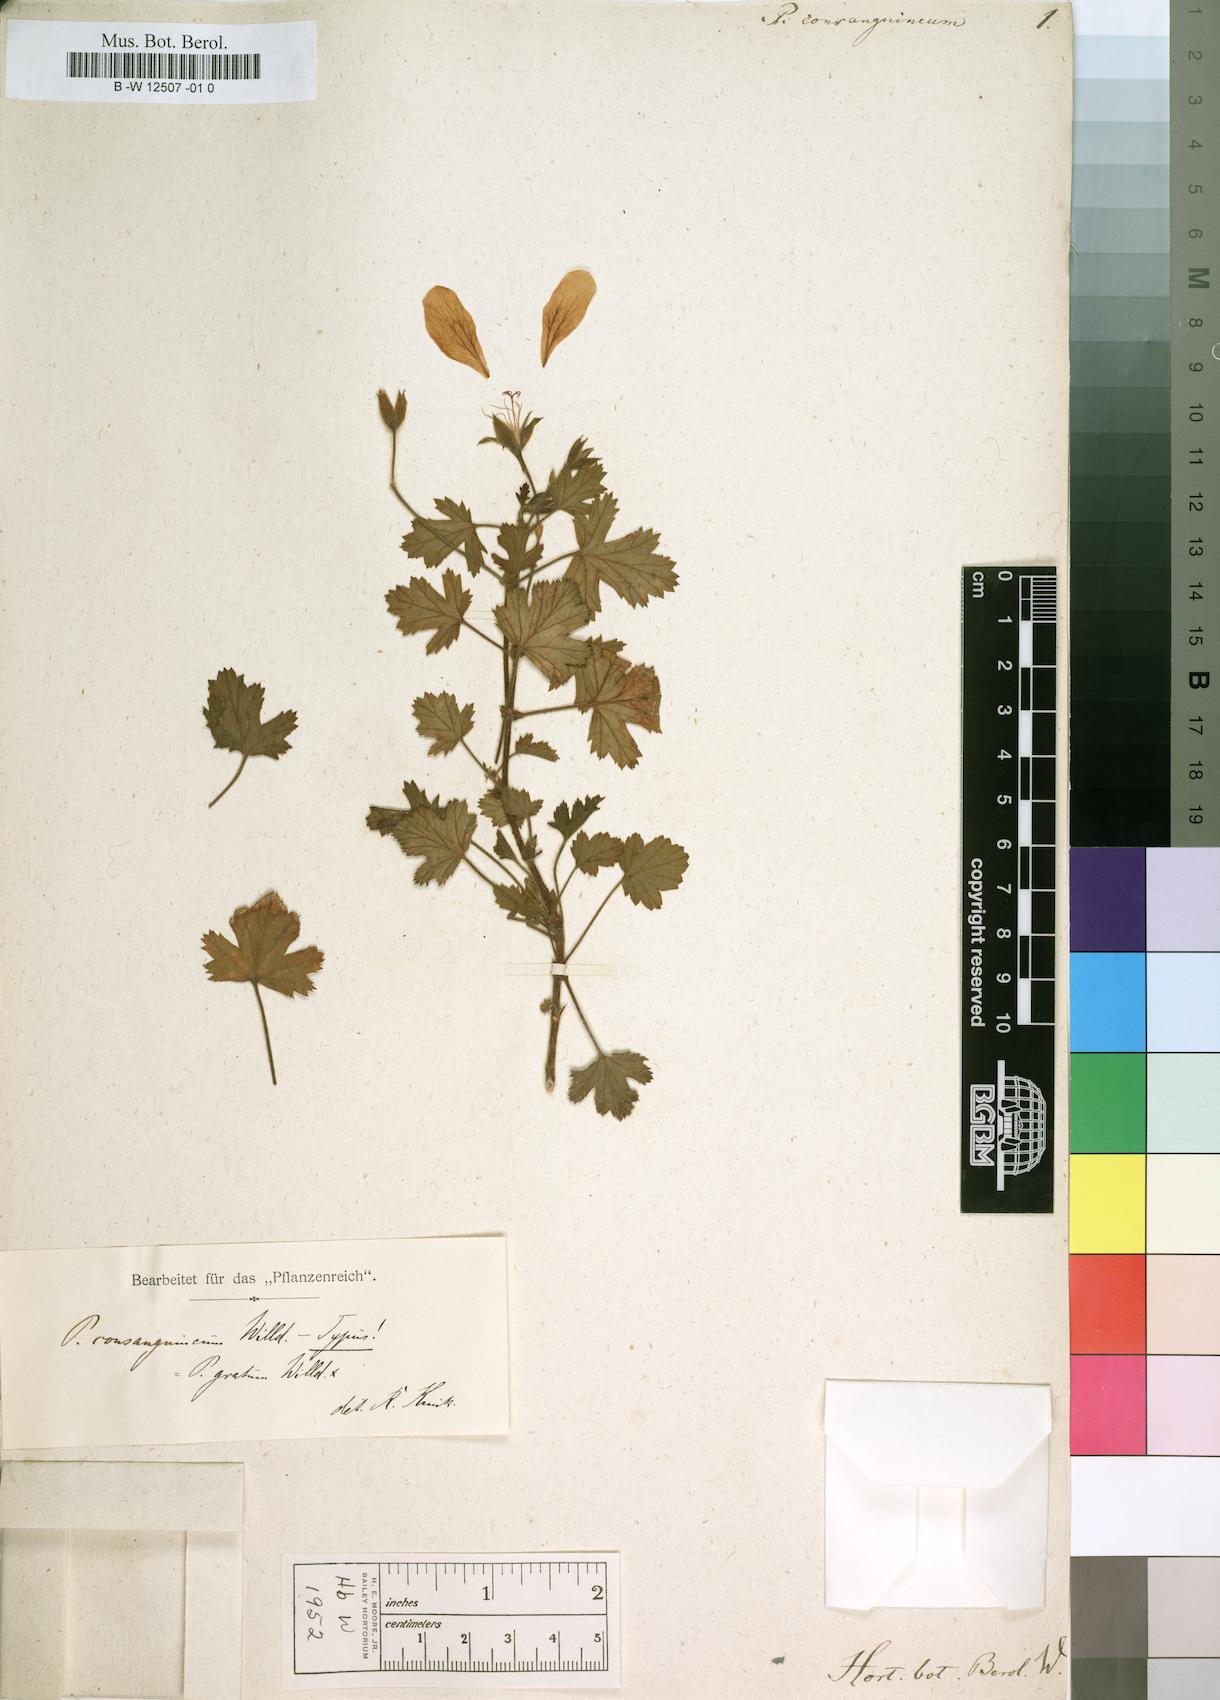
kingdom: Plantae
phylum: Tracheophyta
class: Magnoliopsida
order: Geraniales
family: Geraniaceae
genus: Pelargonium
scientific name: Pelargonium consanguineum
